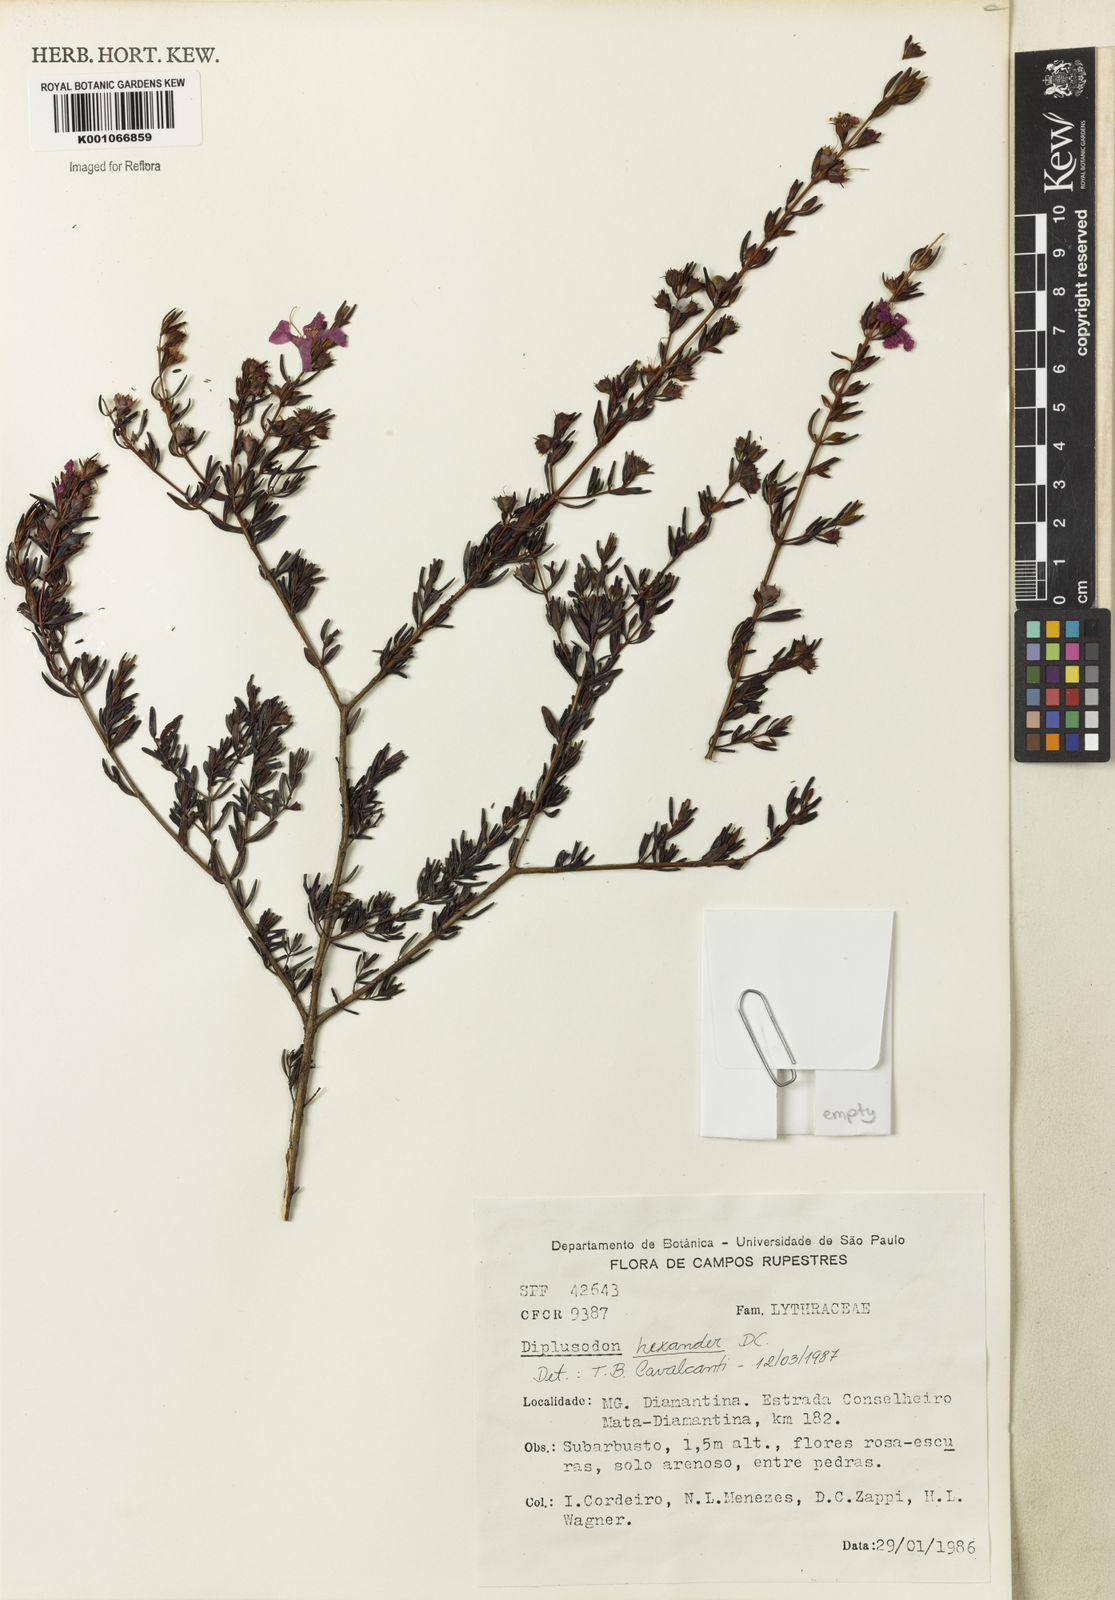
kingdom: Plantae
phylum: Tracheophyta
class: Magnoliopsida
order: Myrtales
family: Lythraceae
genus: Diplusodon
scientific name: Diplusodon hexander
